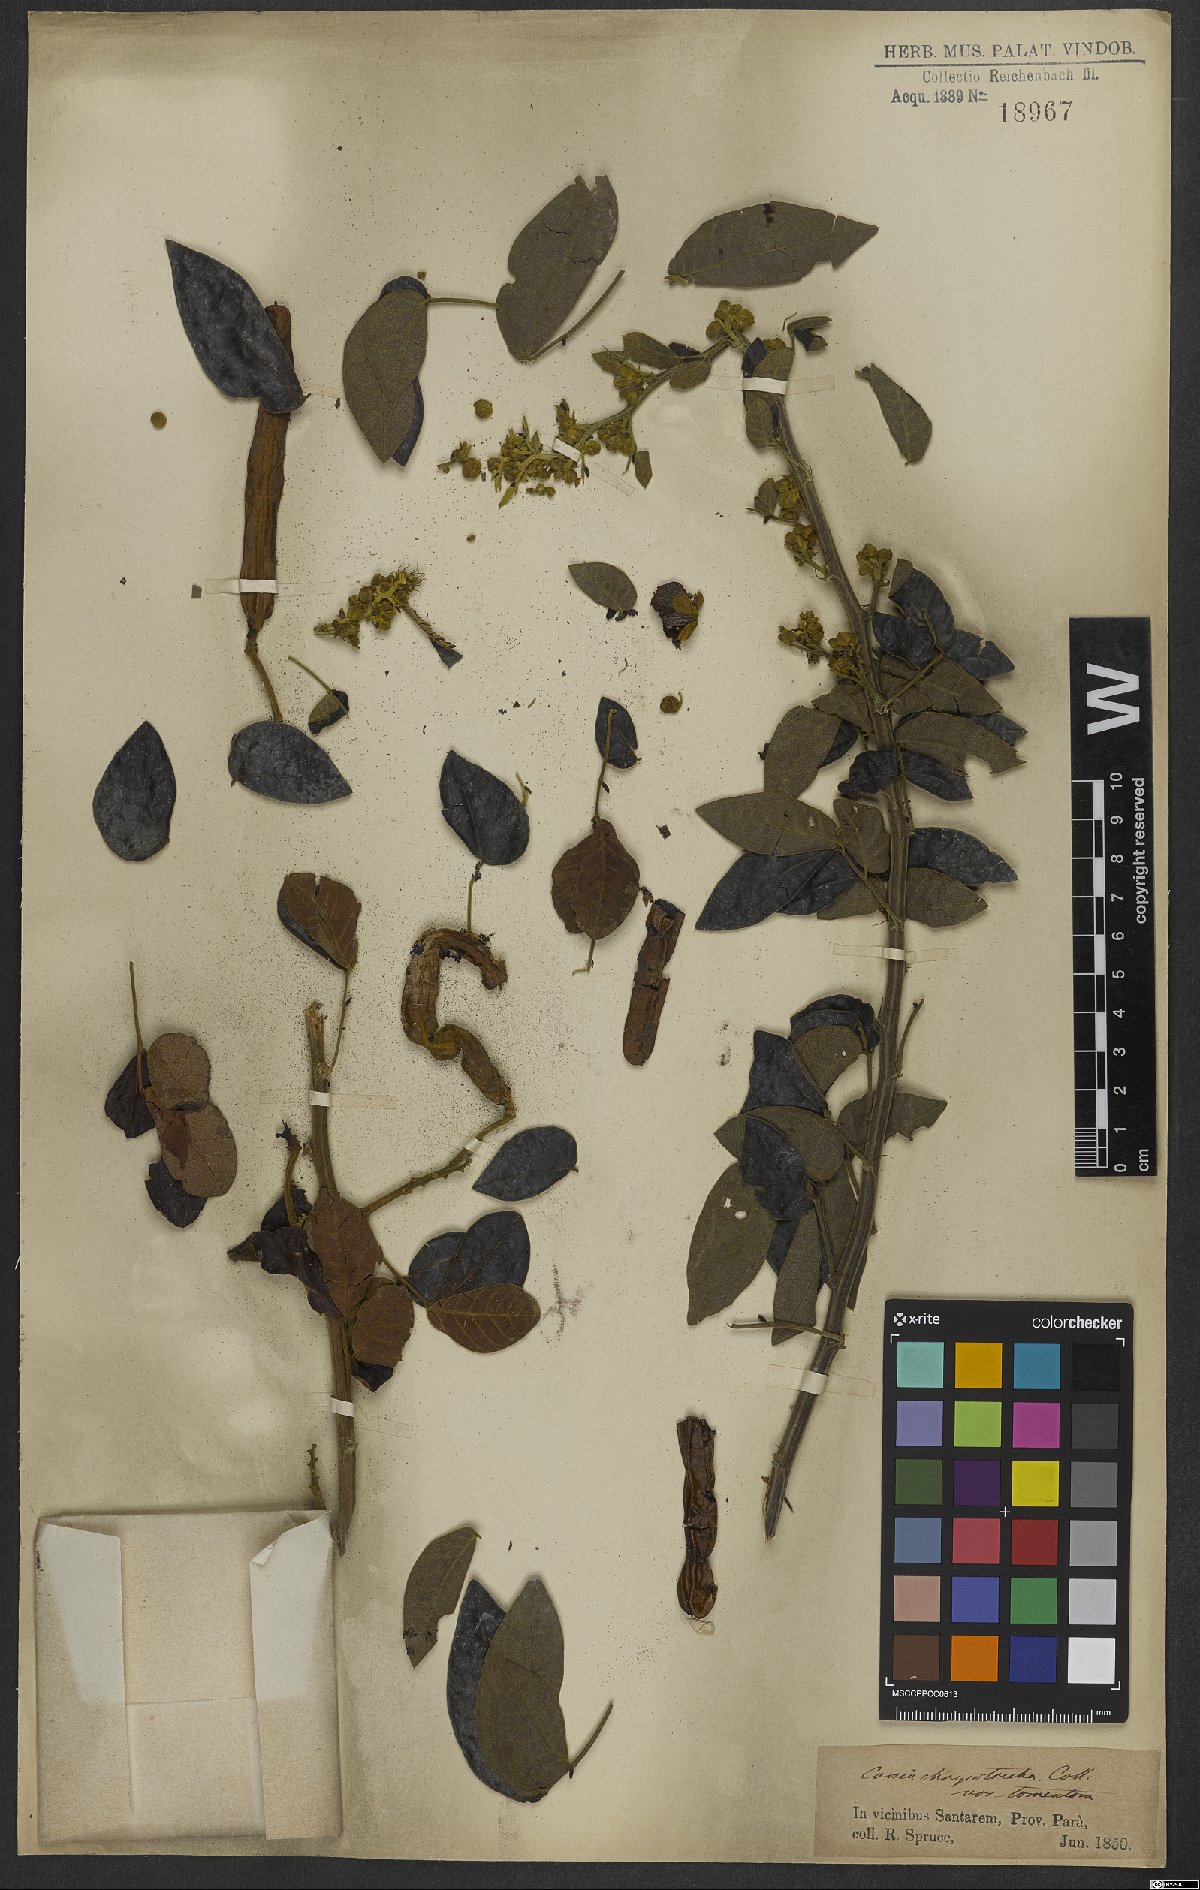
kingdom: Plantae
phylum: Tracheophyta
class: Magnoliopsida
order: Fabales
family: Fabaceae
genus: Senna
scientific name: Senna chrysocarpa
